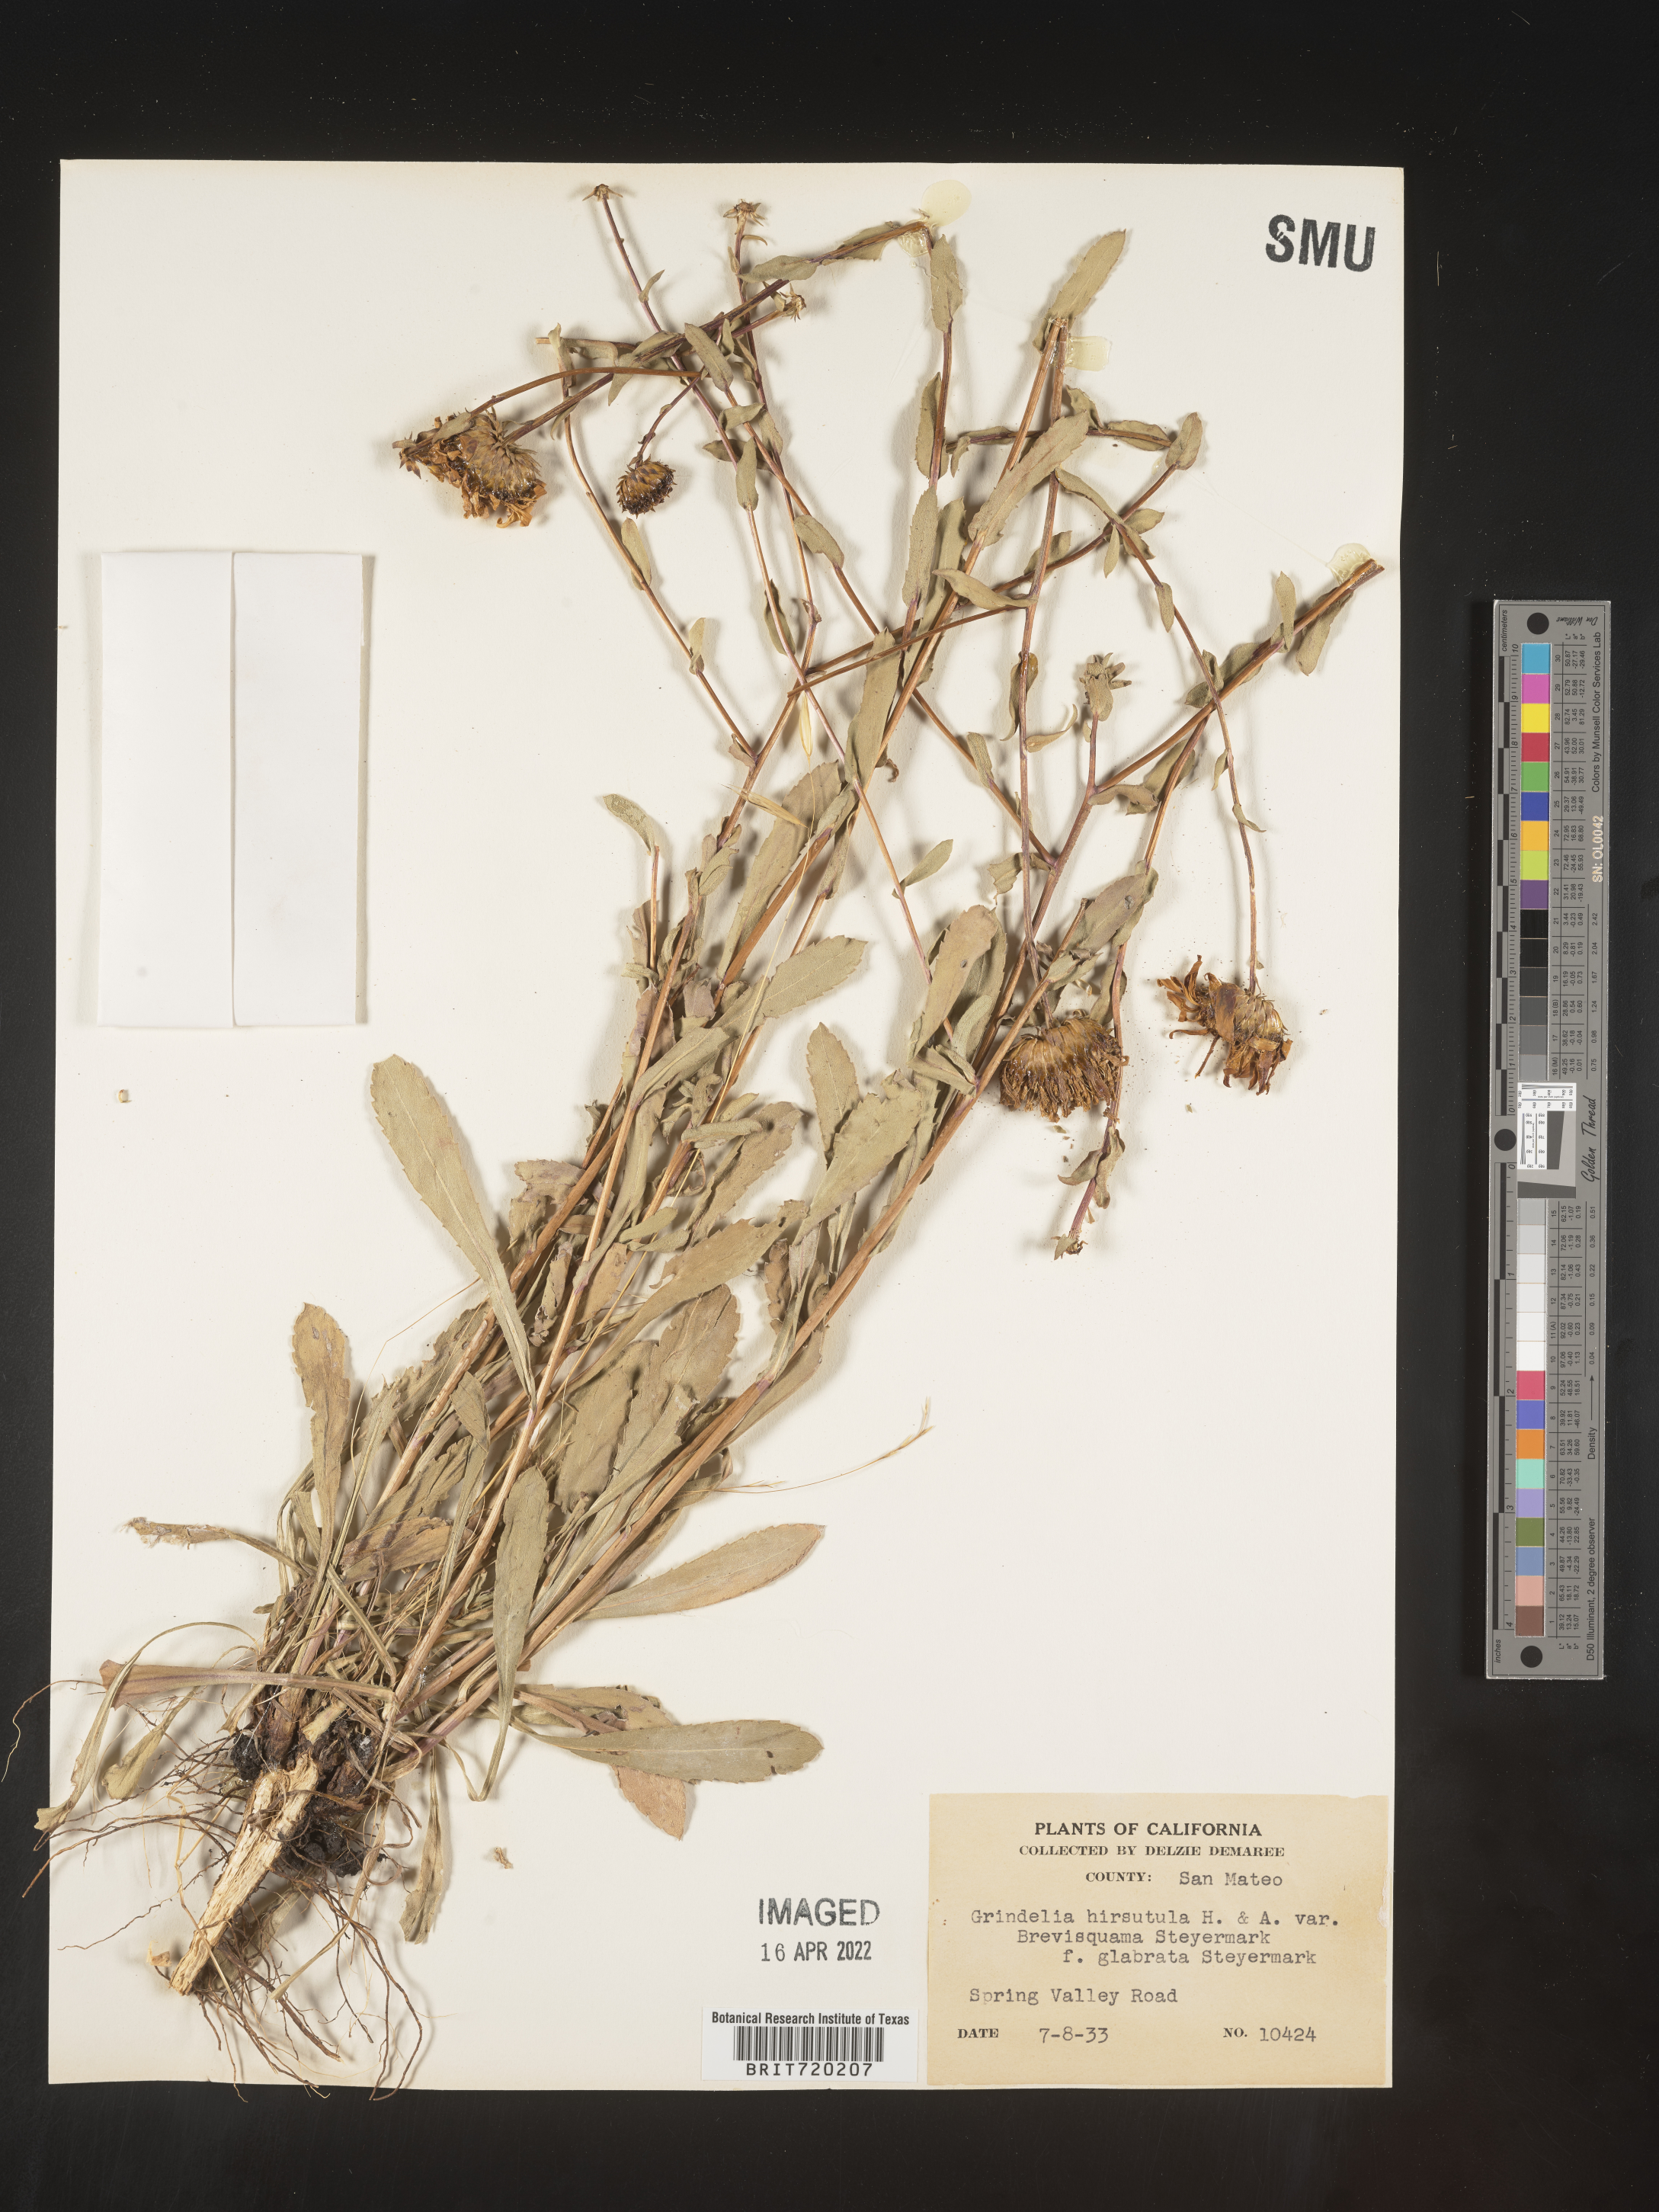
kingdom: Plantae
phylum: Tracheophyta
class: Magnoliopsida
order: Asterales
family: Asteraceae
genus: Grindelia
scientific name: Grindelia hirsutula
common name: Hairy gumweed
